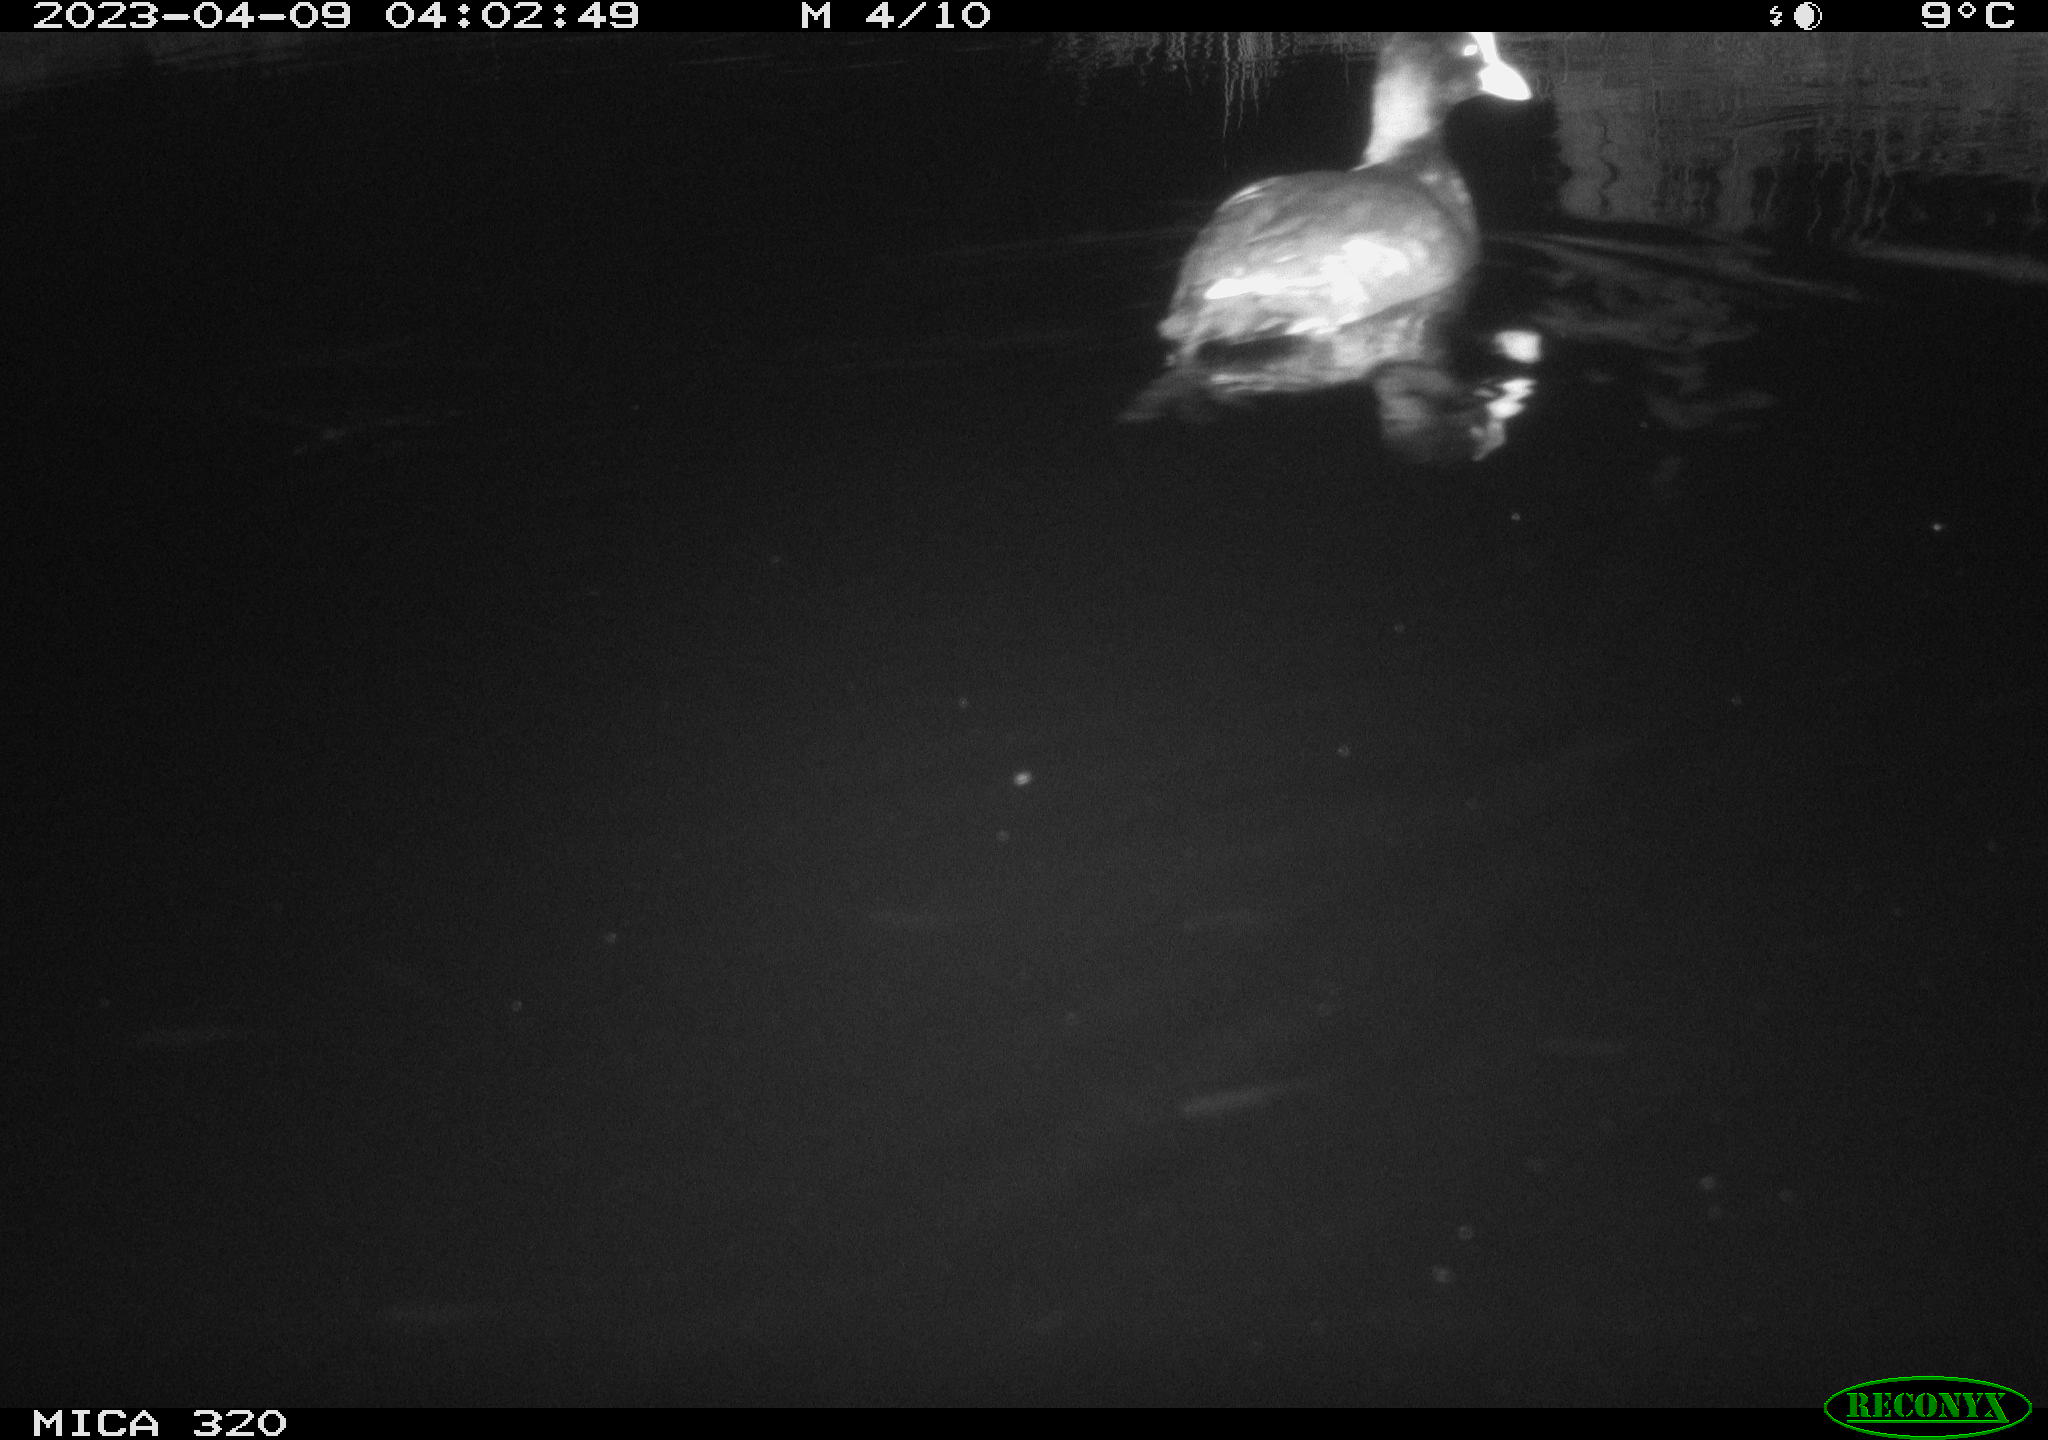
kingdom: Animalia
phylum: Chordata
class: Aves
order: Gruiformes
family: Rallidae
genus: Fulica
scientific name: Fulica atra
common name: Eurasian coot
